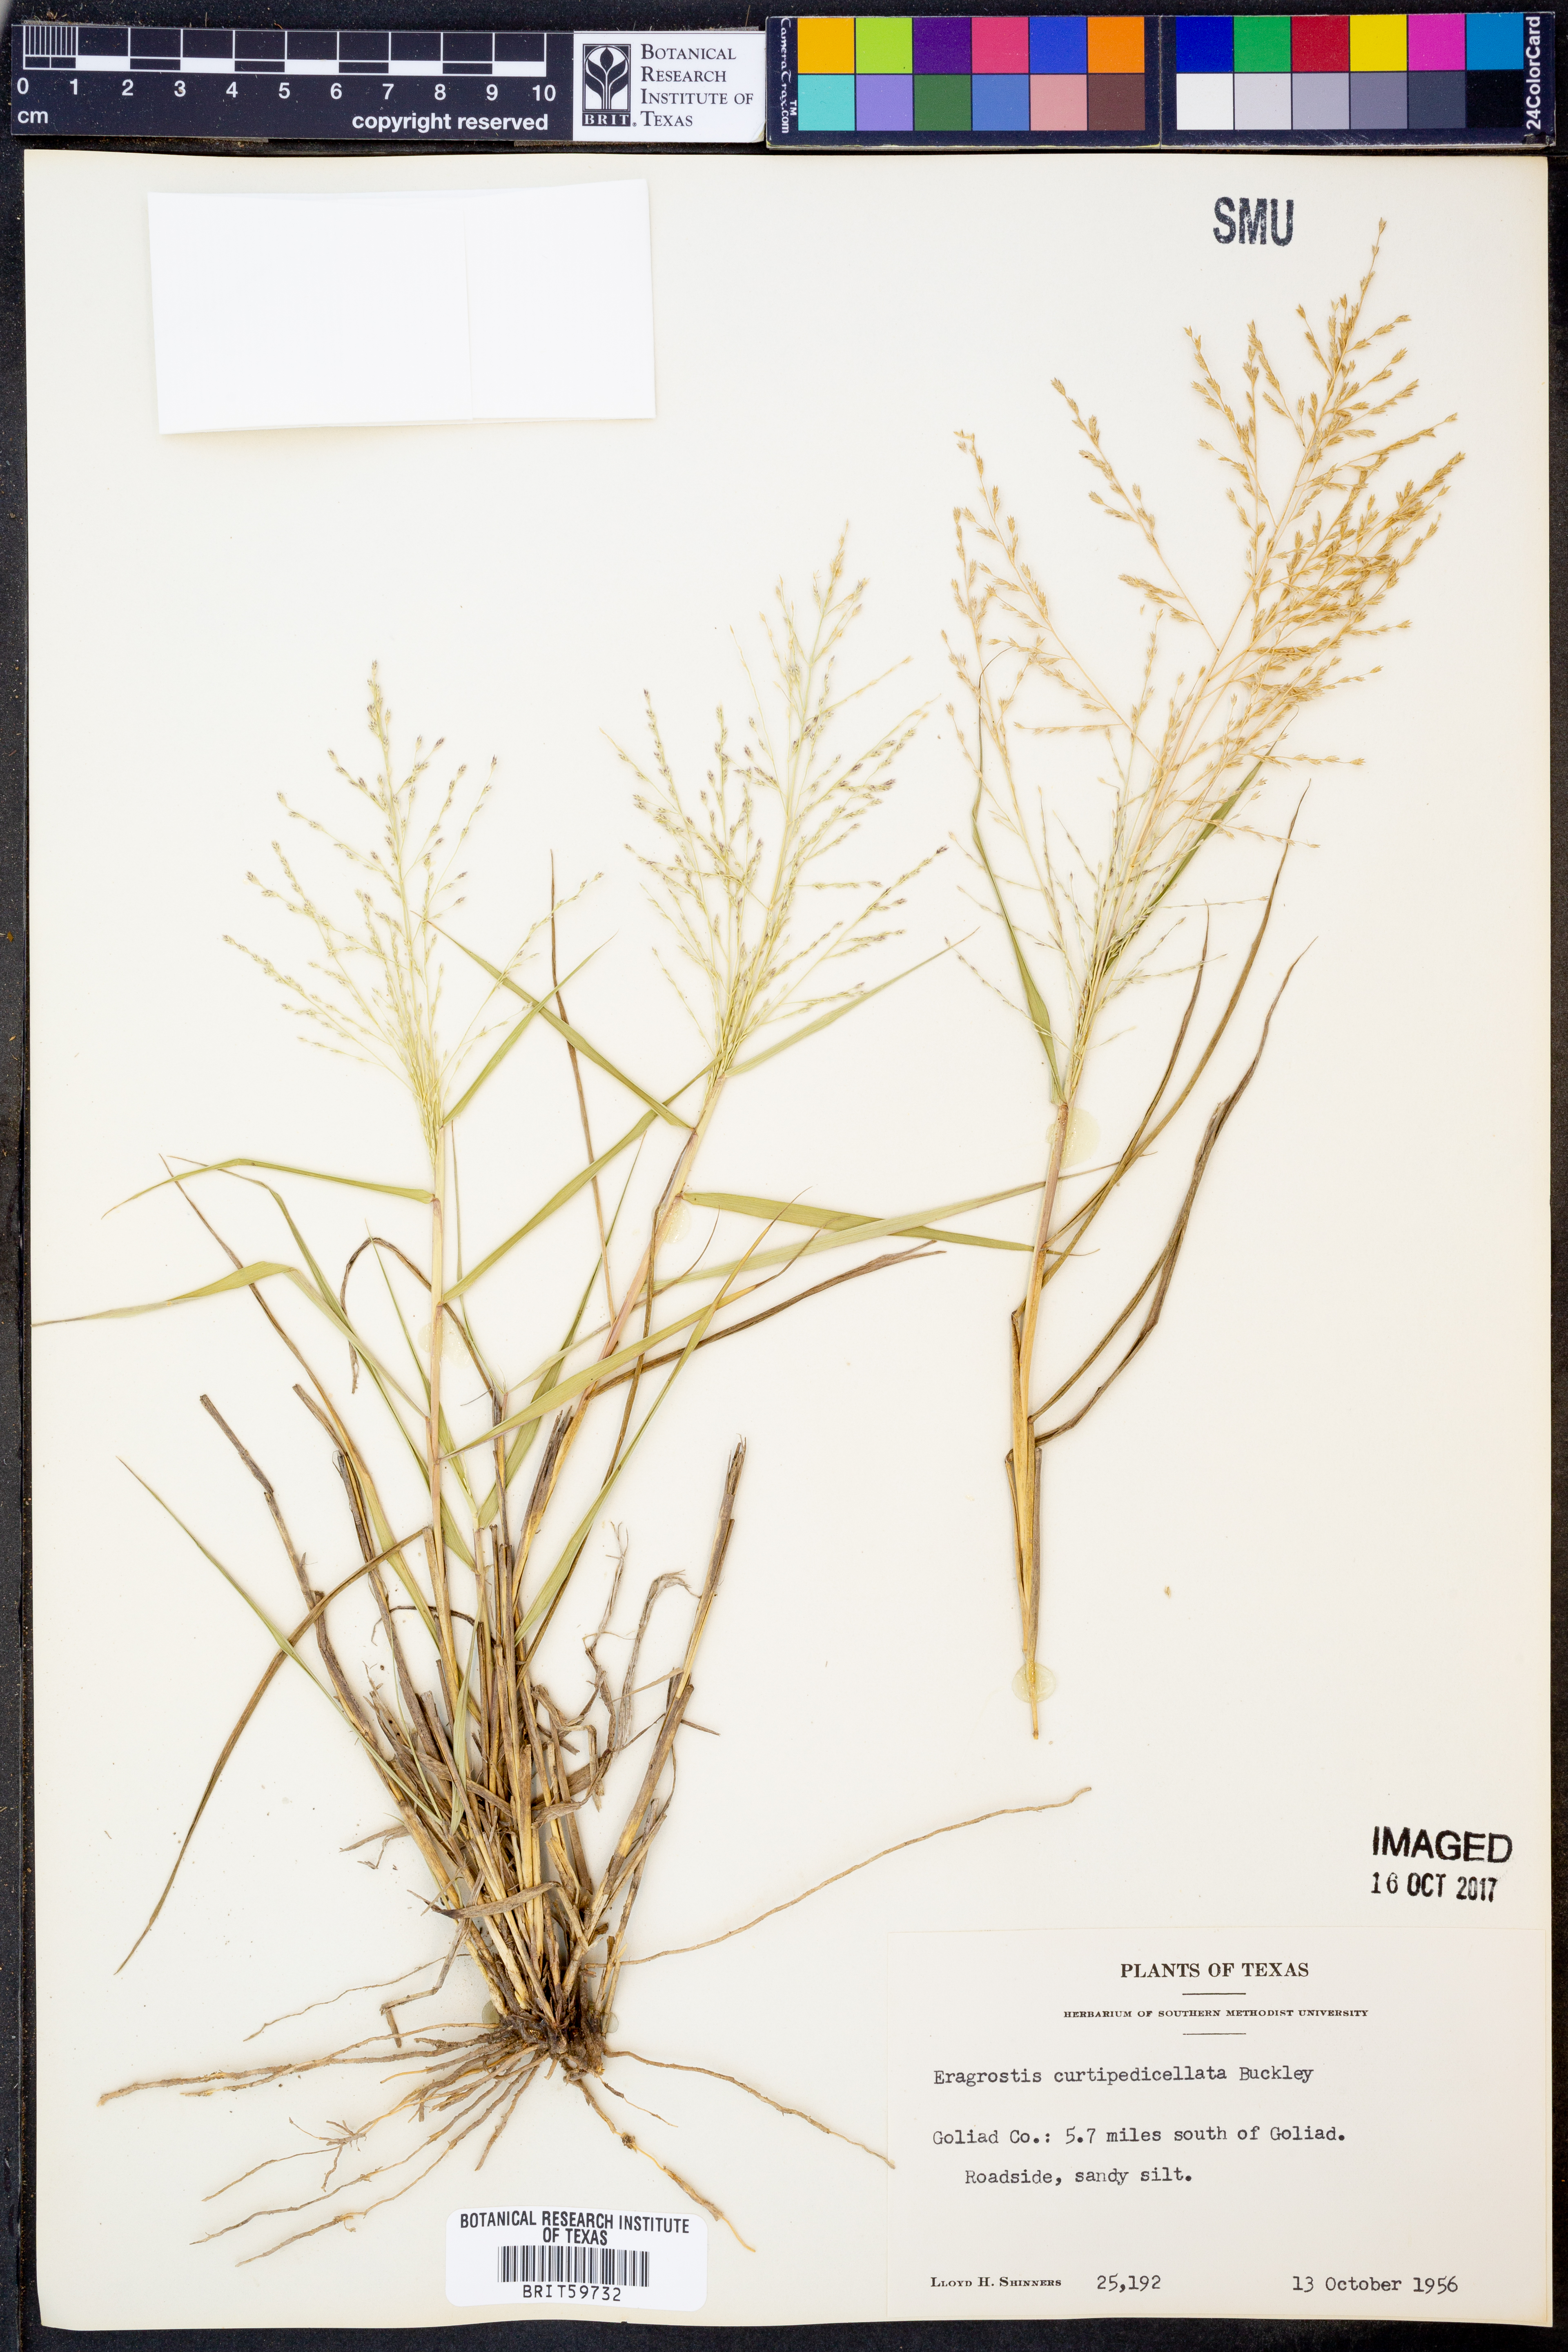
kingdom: Plantae
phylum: Tracheophyta
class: Liliopsida
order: Poales
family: Poaceae
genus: Eragrostis
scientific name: Eragrostis curtipedicellata
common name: Gummy love grass
